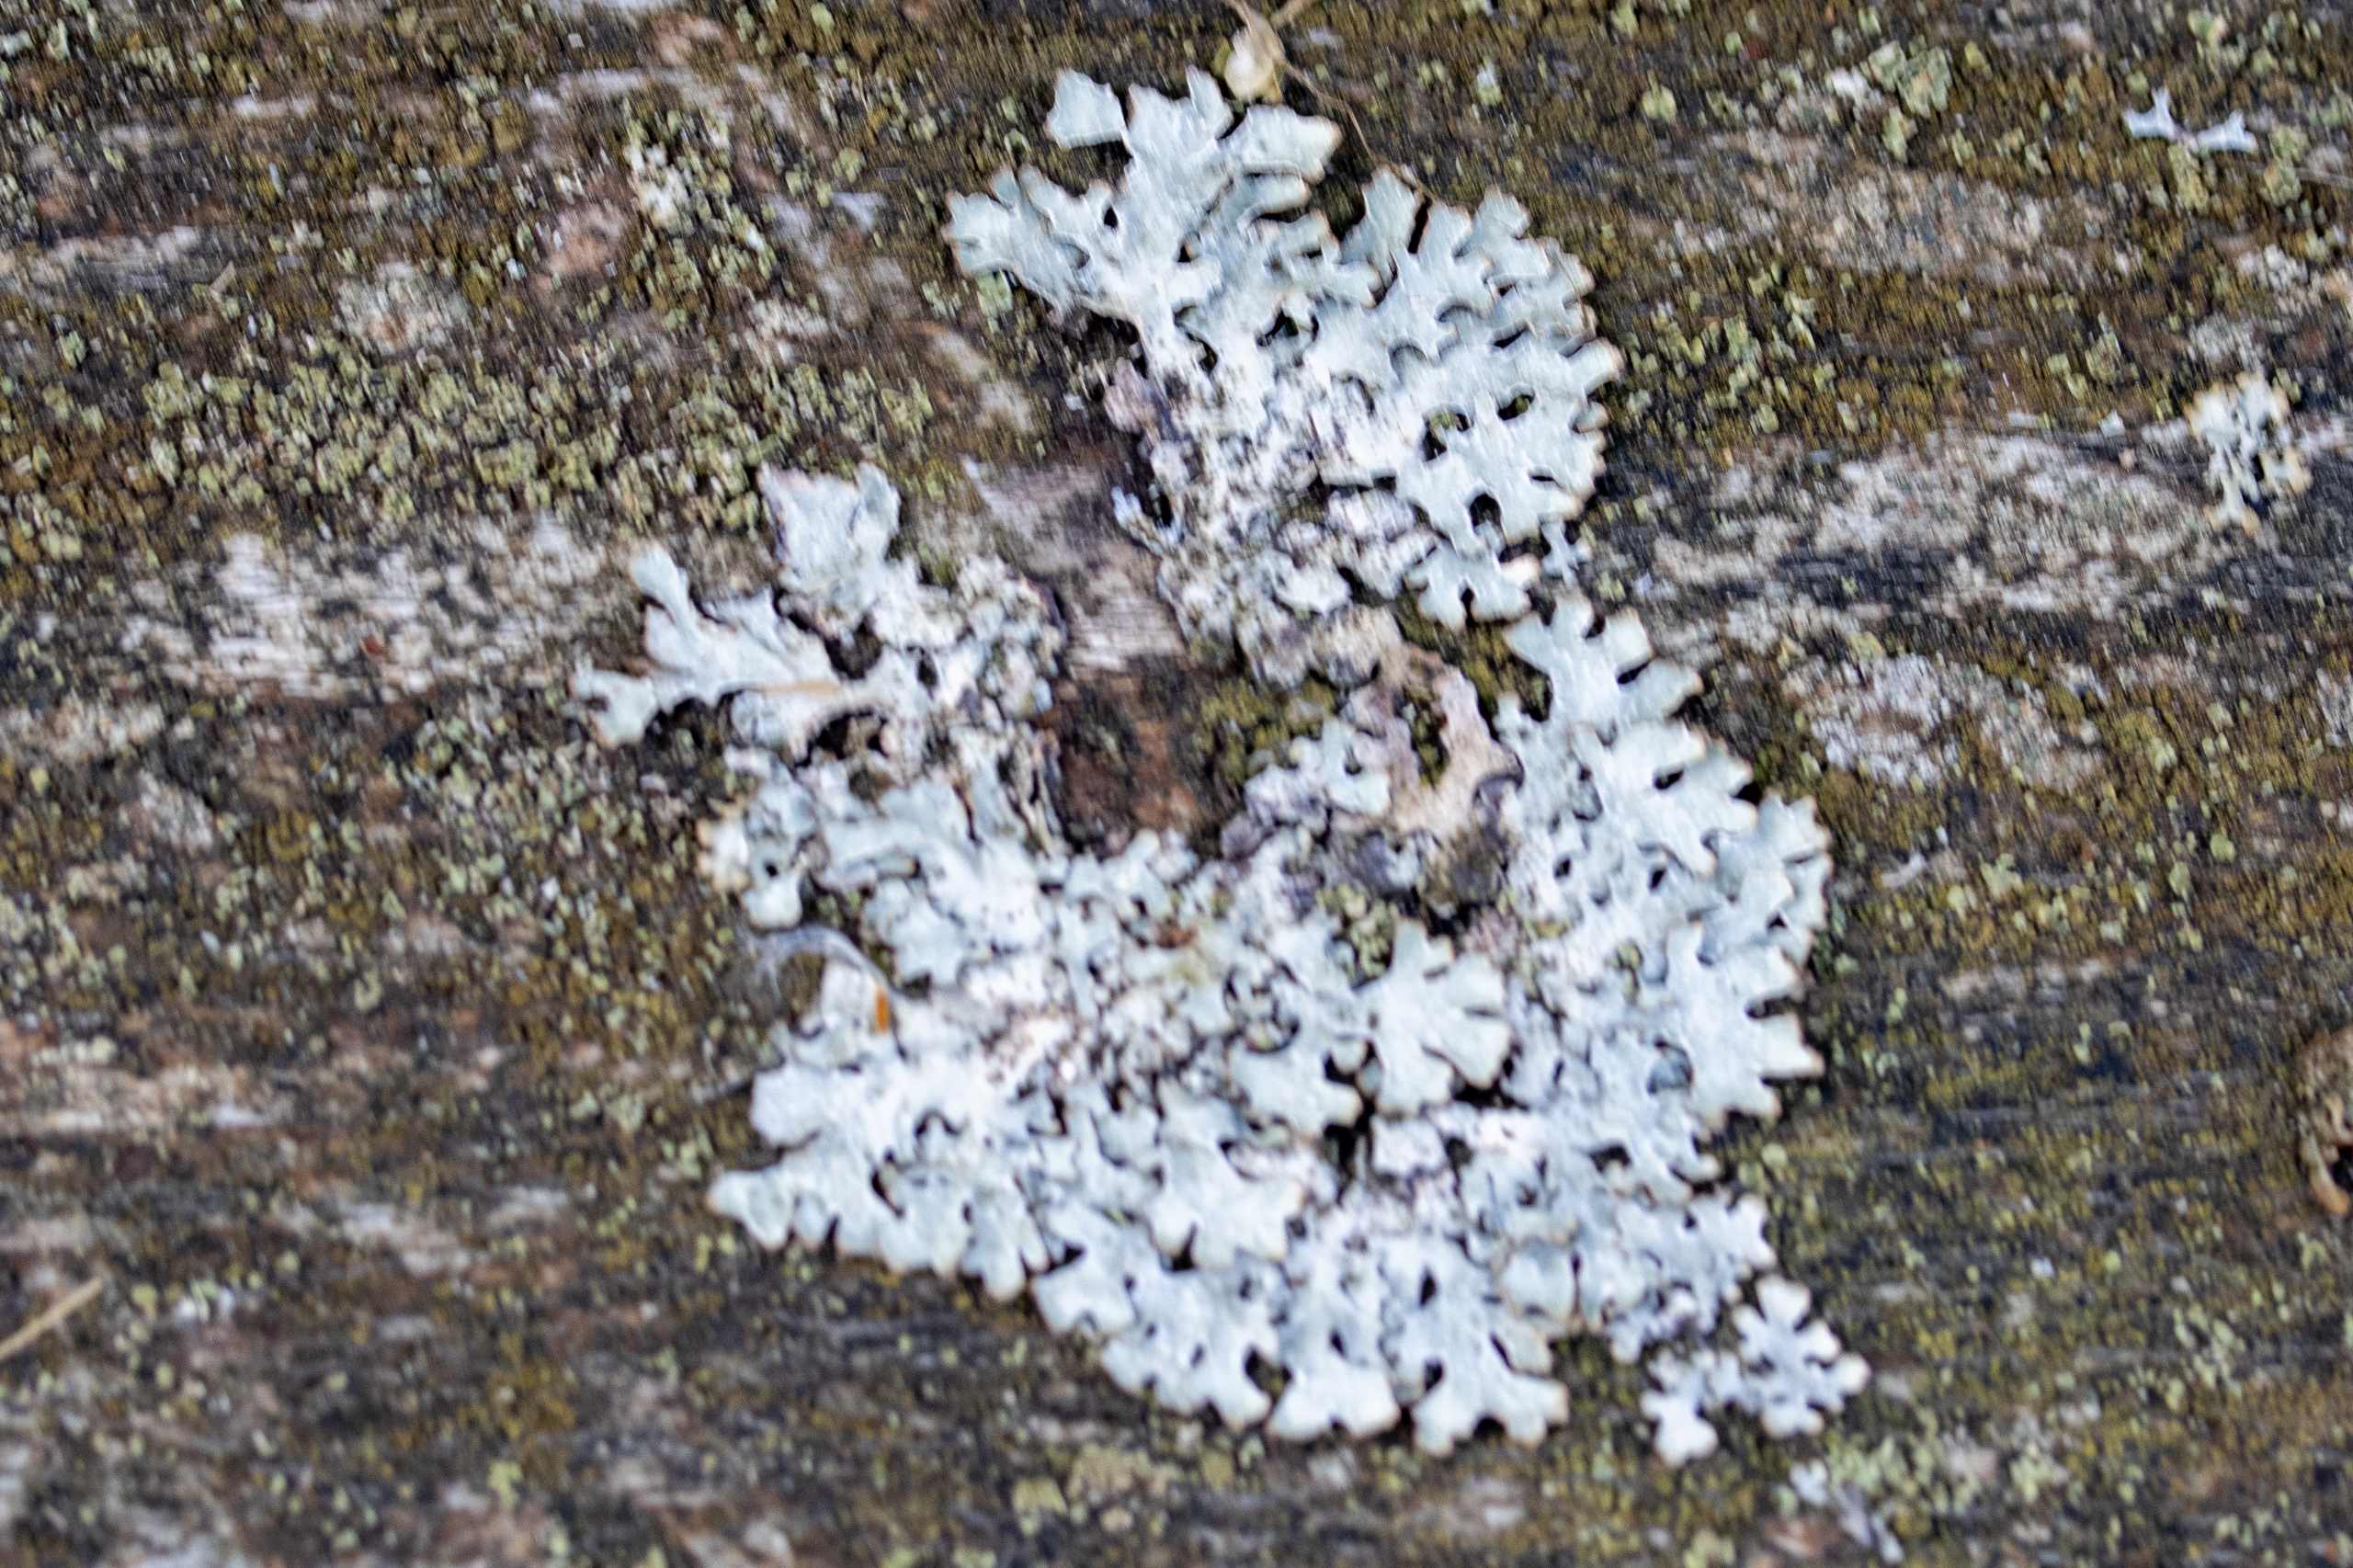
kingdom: Fungi
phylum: Ascomycota
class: Lecanoromycetes
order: Lecanorales
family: Parmeliaceae
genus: Parmelia
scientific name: Parmelia
